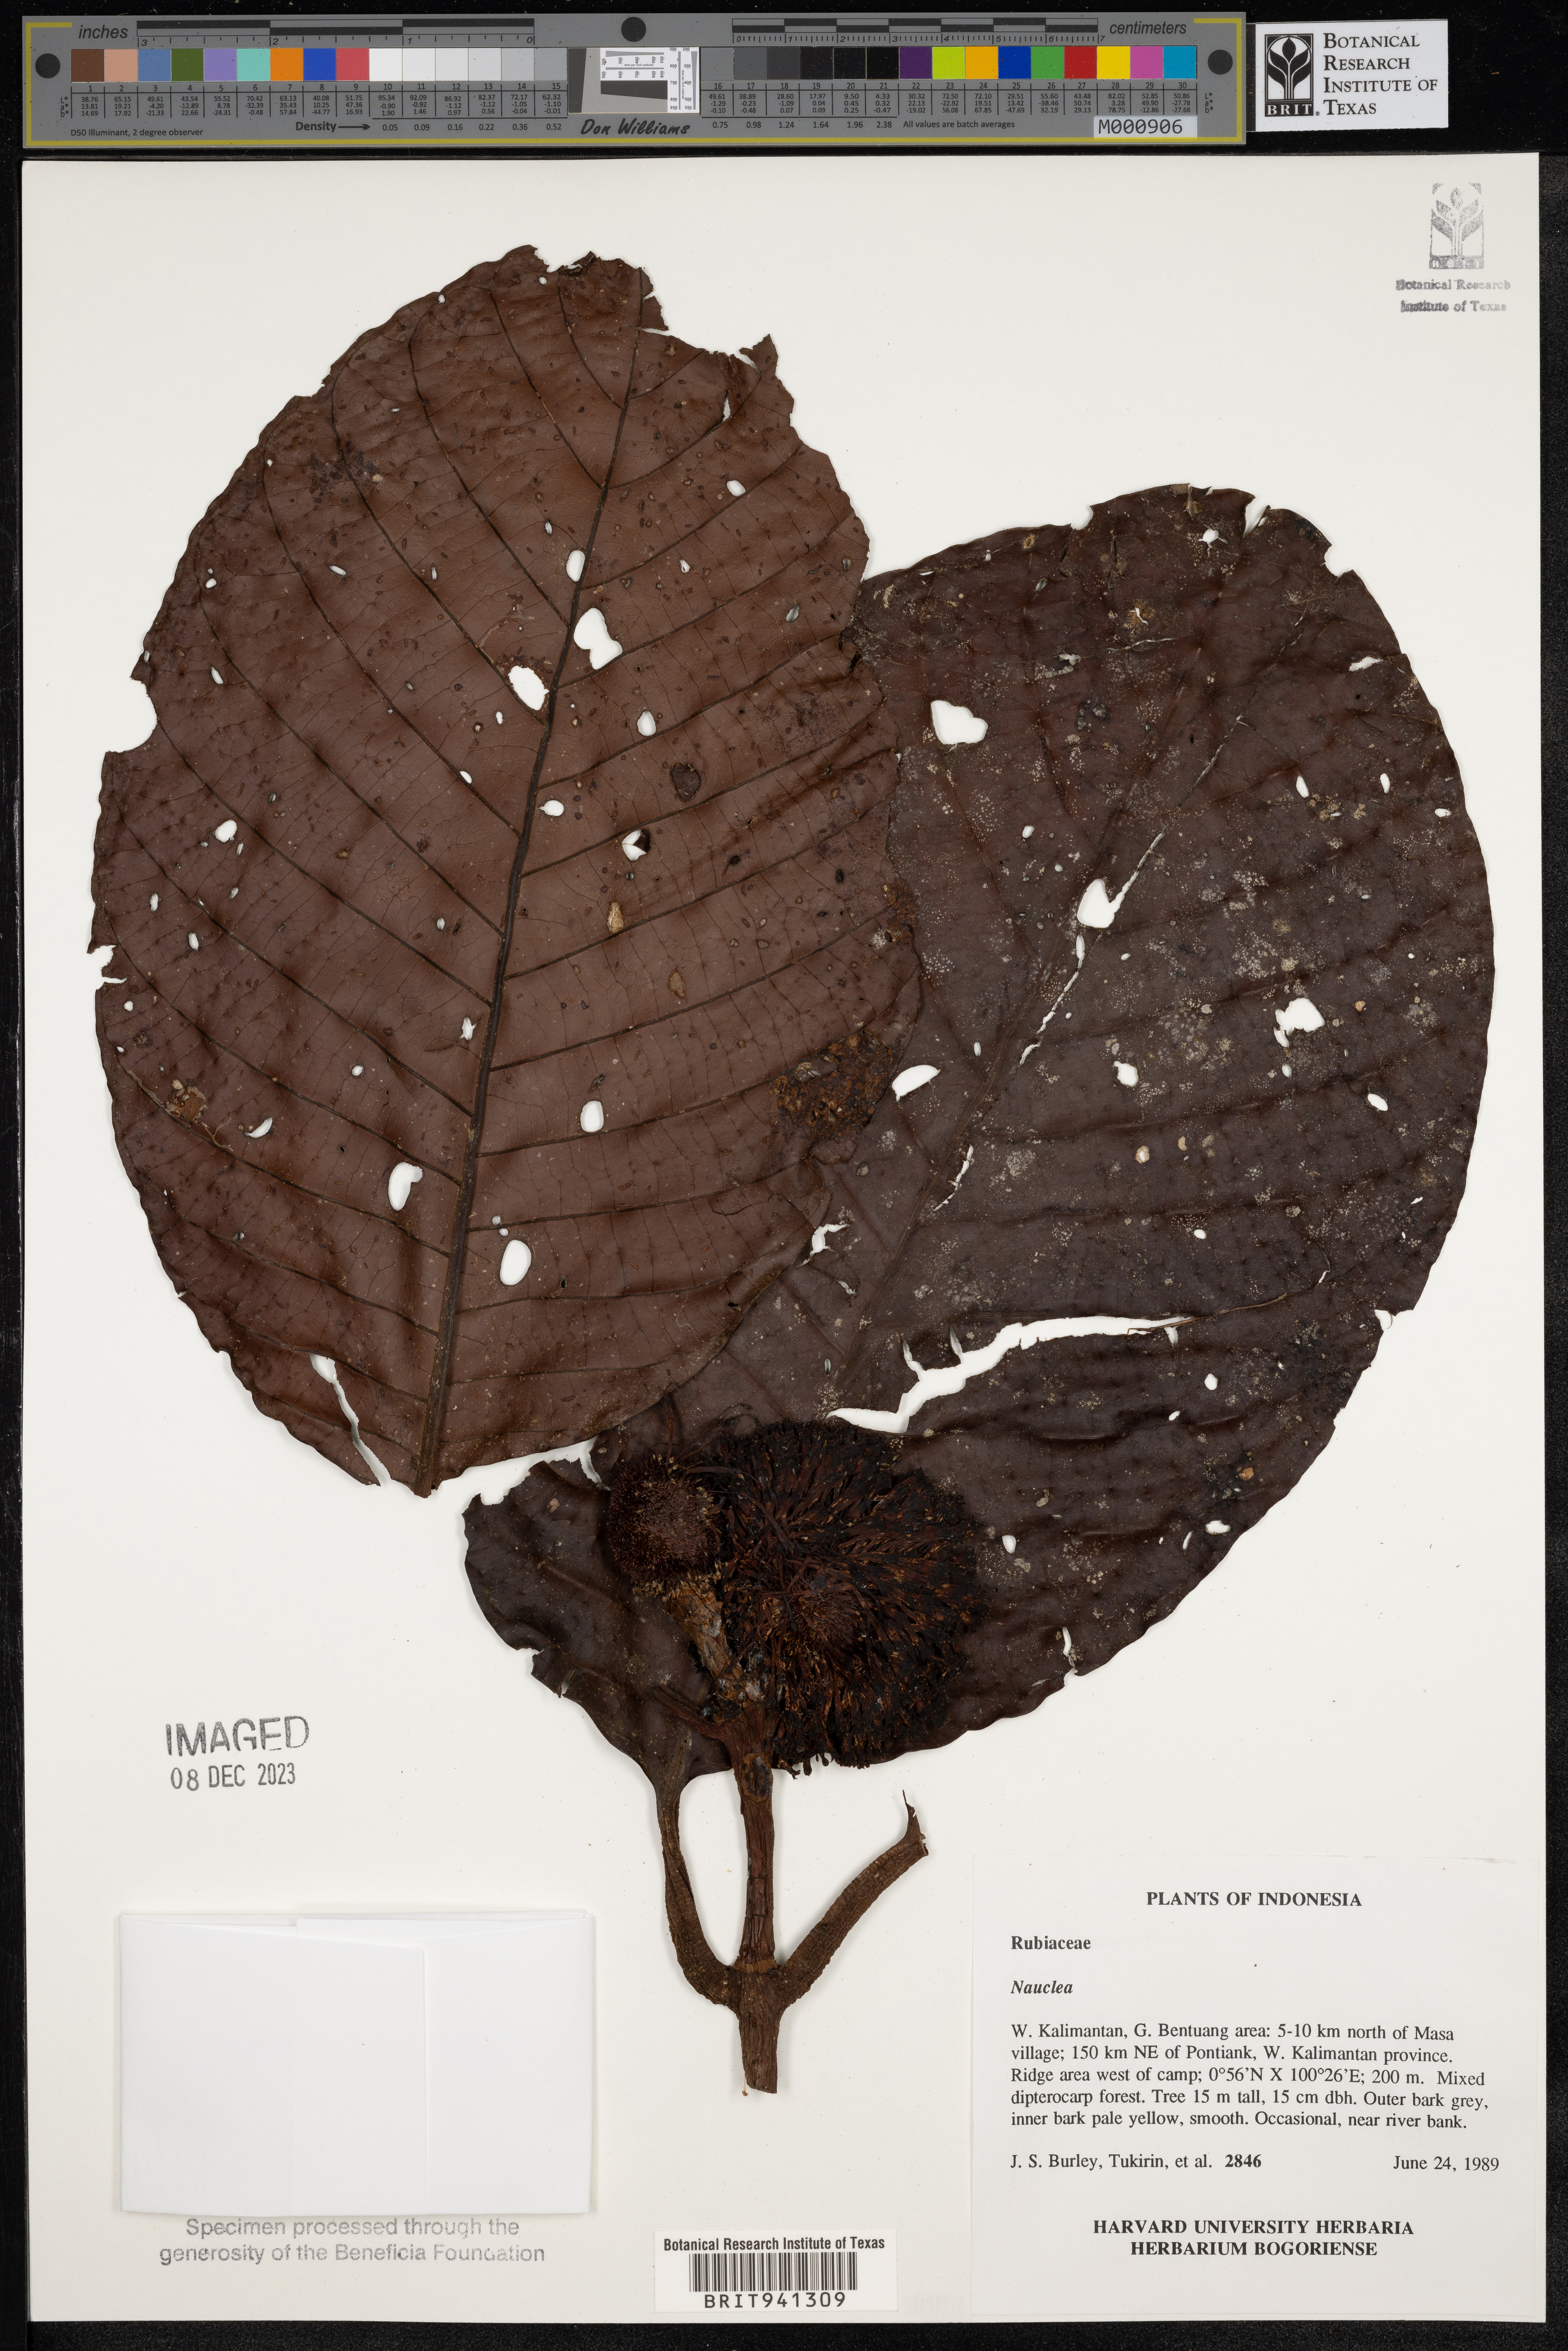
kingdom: Plantae
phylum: Tracheophyta
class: Magnoliopsida
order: Gentianales
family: Rubiaceae
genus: Nauclea
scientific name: Nauclea
